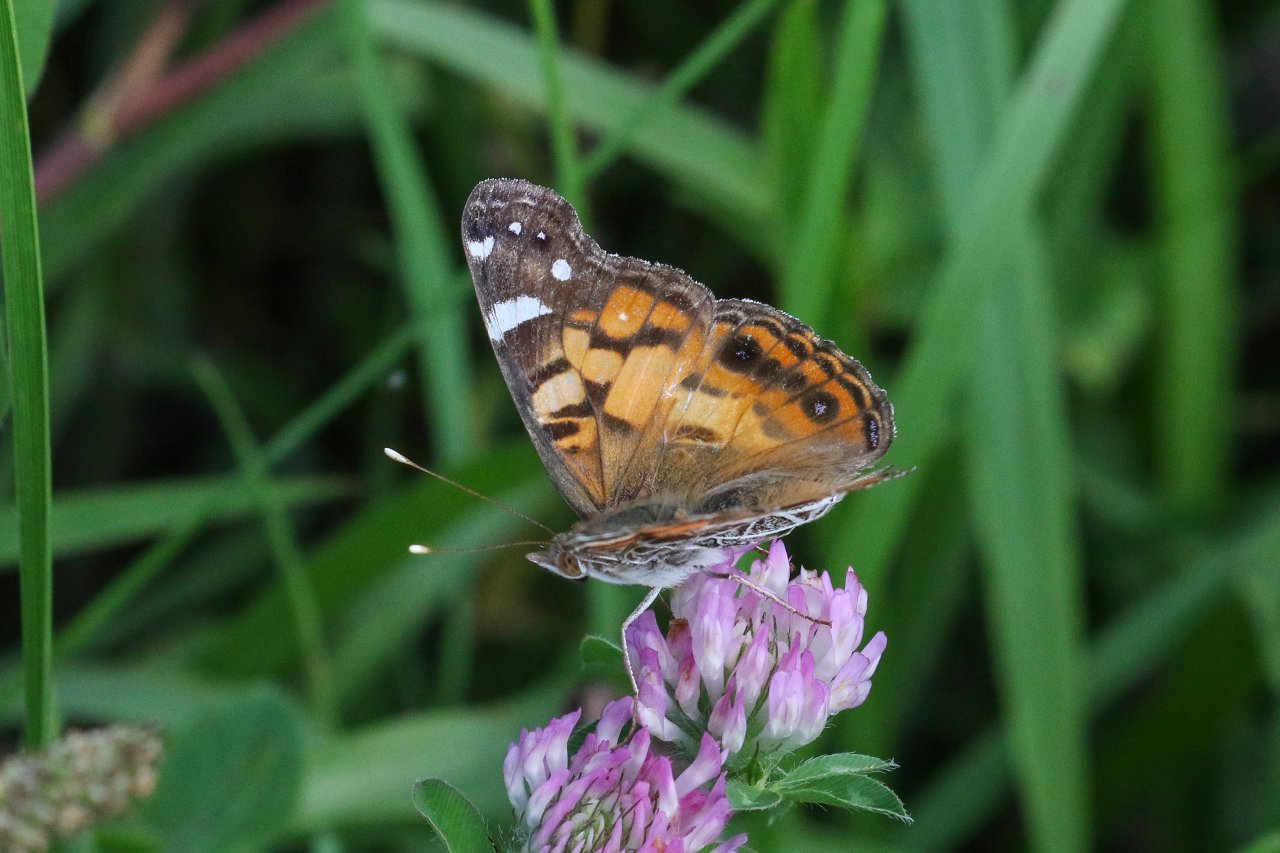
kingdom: Animalia
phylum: Arthropoda
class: Insecta
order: Lepidoptera
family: Nymphalidae
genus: Vanessa
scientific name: Vanessa virginiensis
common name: American Lady
